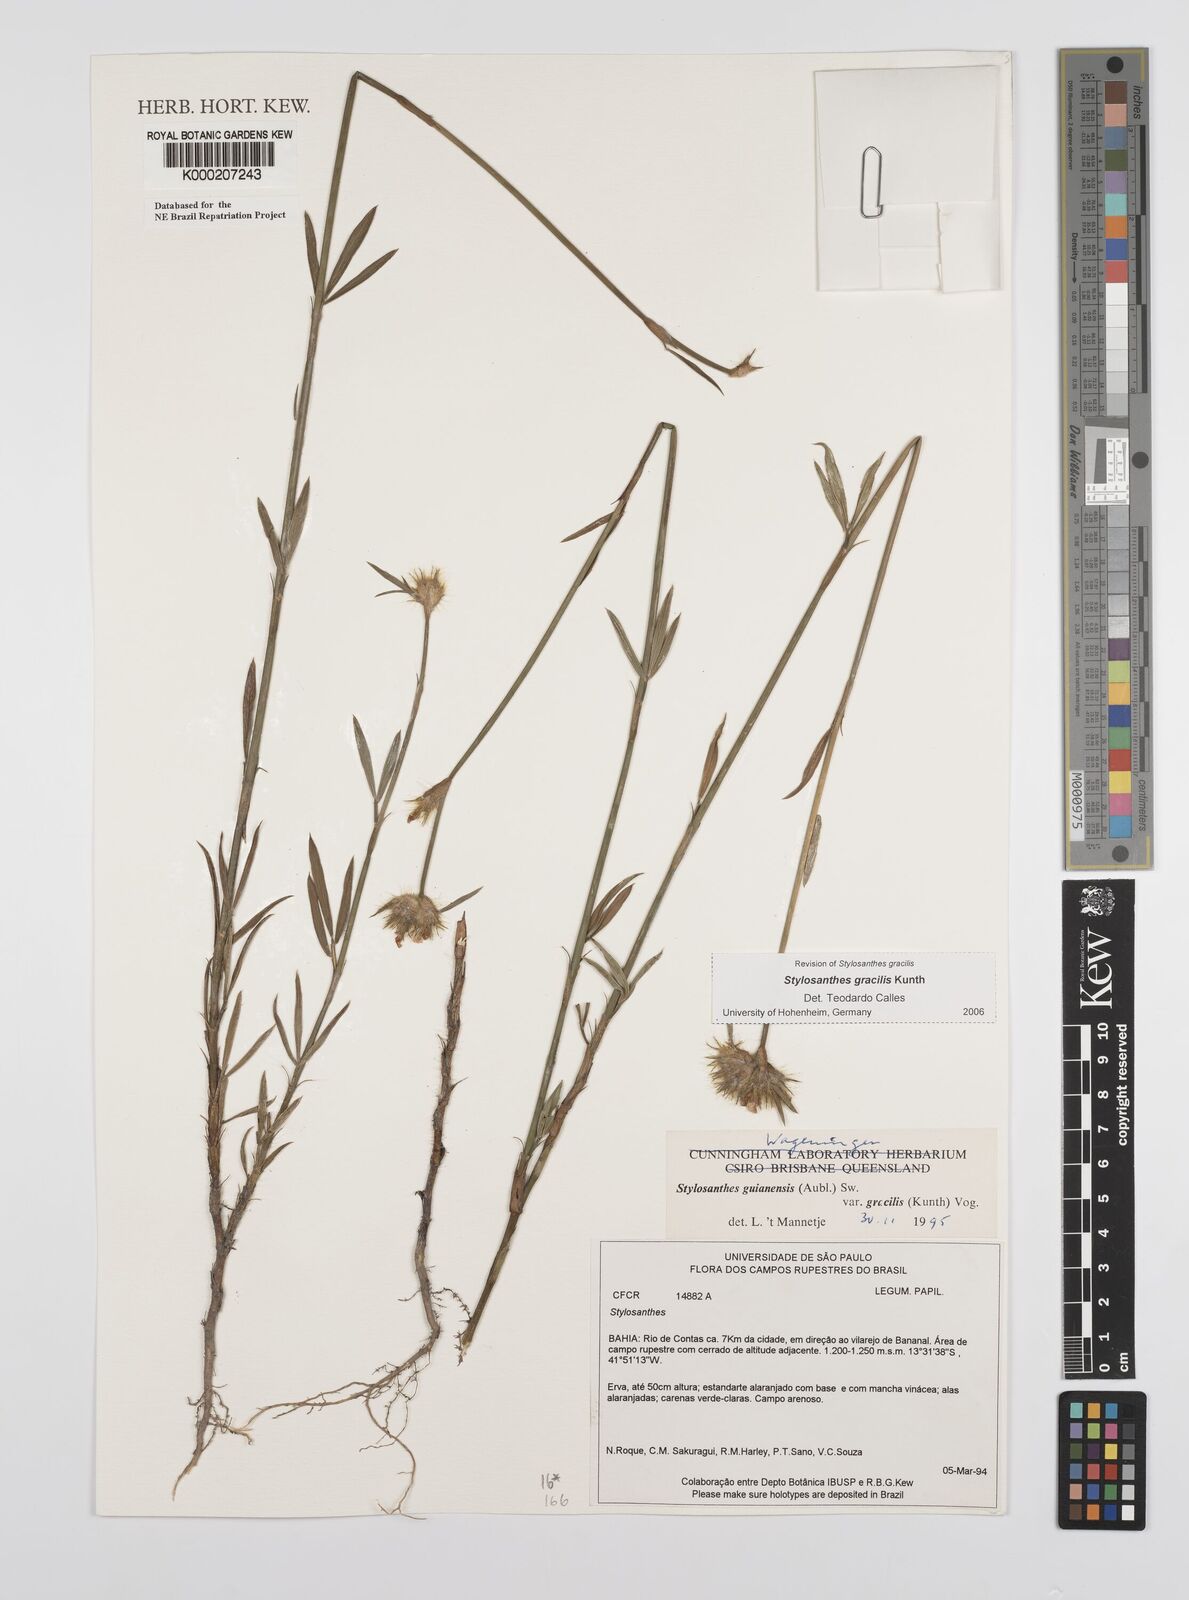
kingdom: Plantae
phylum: Tracheophyta
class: Magnoliopsida
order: Fabales
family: Fabaceae
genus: Stylosanthes
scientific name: Stylosanthes guianensis
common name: Pencil flower
